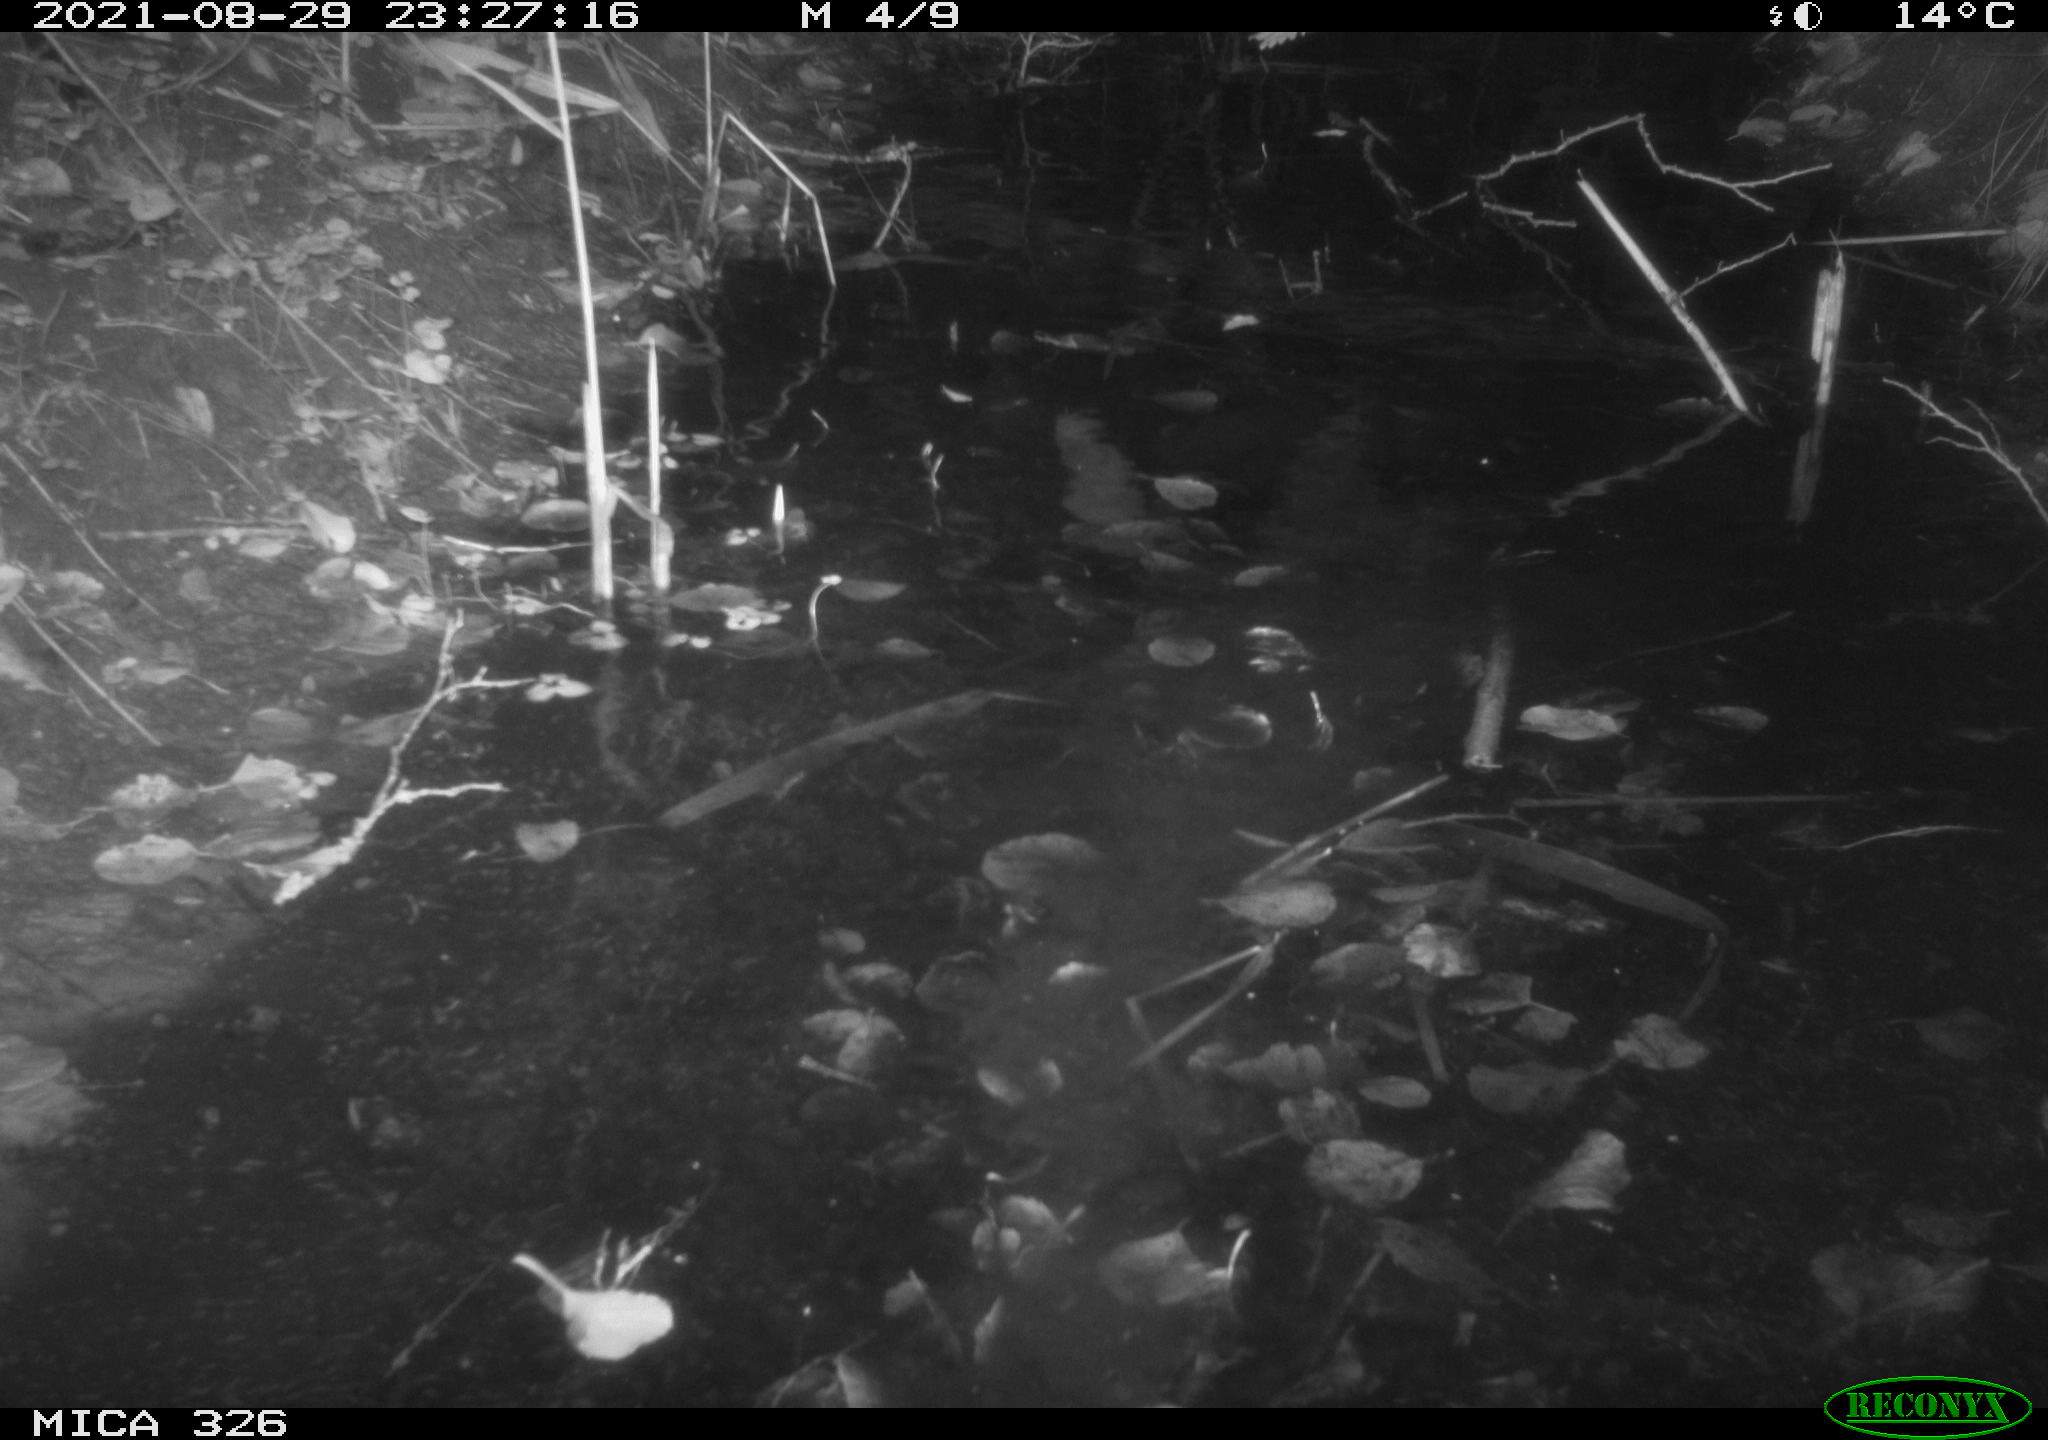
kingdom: Animalia
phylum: Chordata
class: Mammalia
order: Rodentia
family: Cricetidae
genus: Ondatra
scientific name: Ondatra zibethicus
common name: Muskrat
